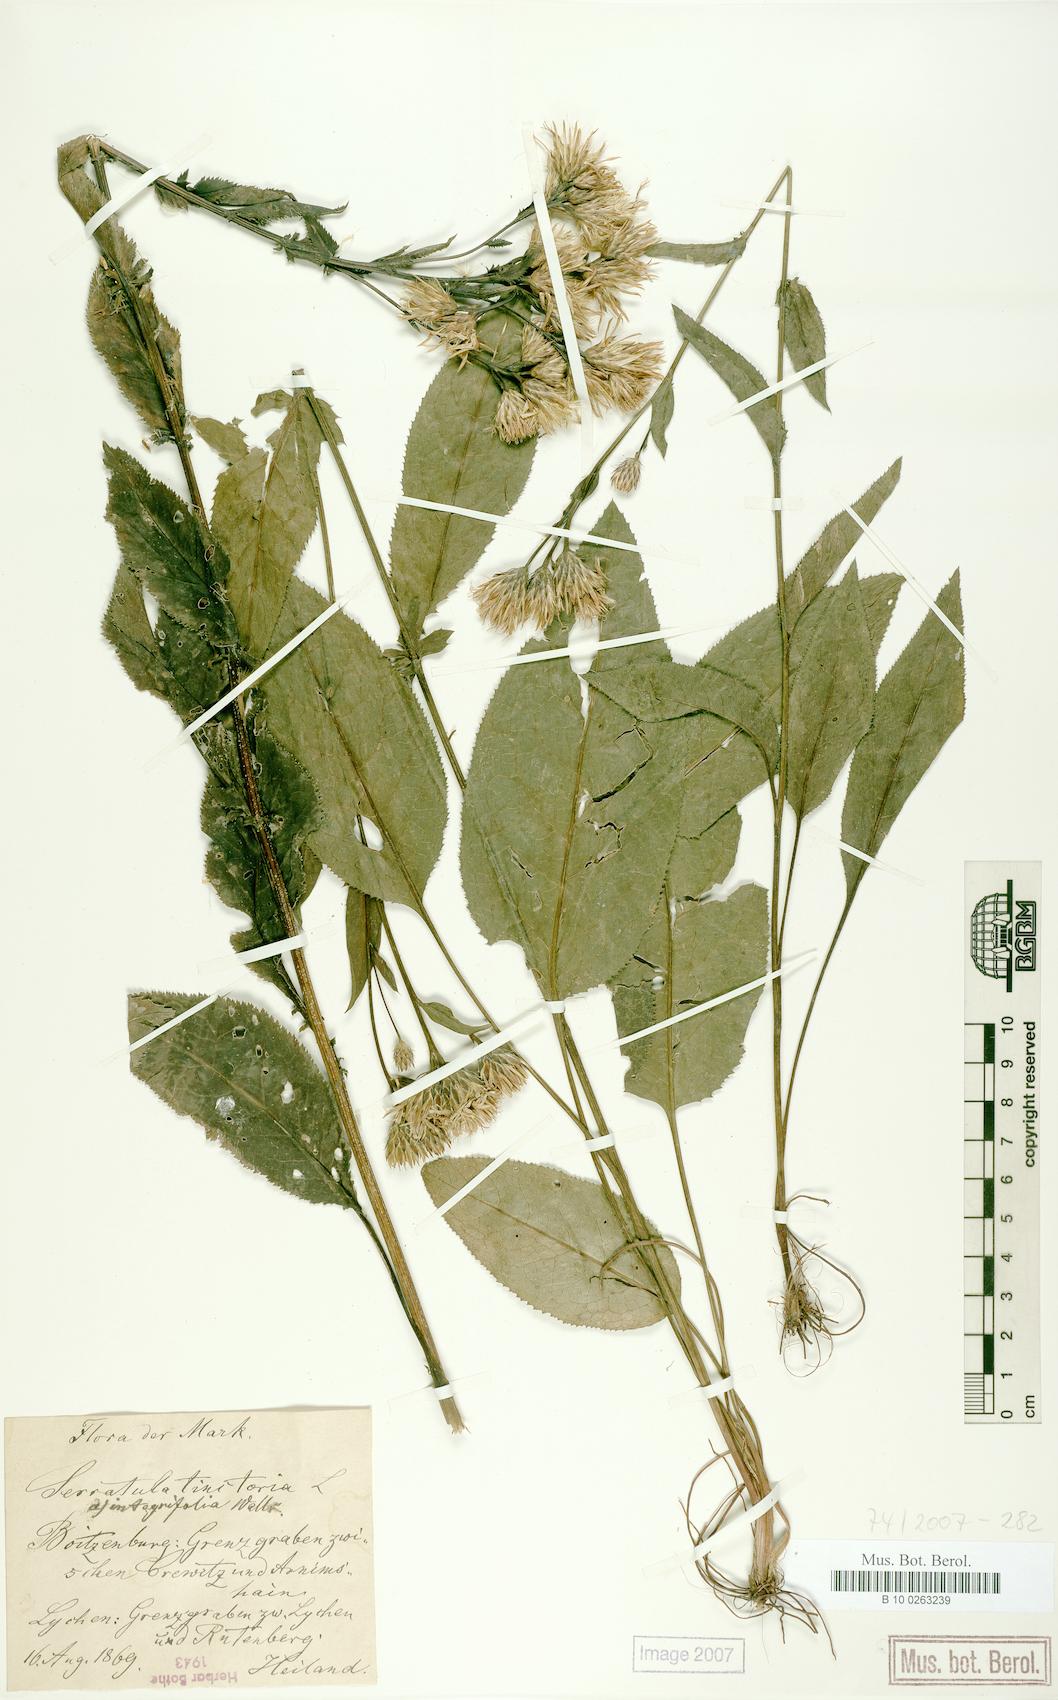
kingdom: Plantae
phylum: Tracheophyta
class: Magnoliopsida
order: Asterales
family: Asteraceae
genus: Serratula
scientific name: Serratula tinctoria
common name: Saw-wort
